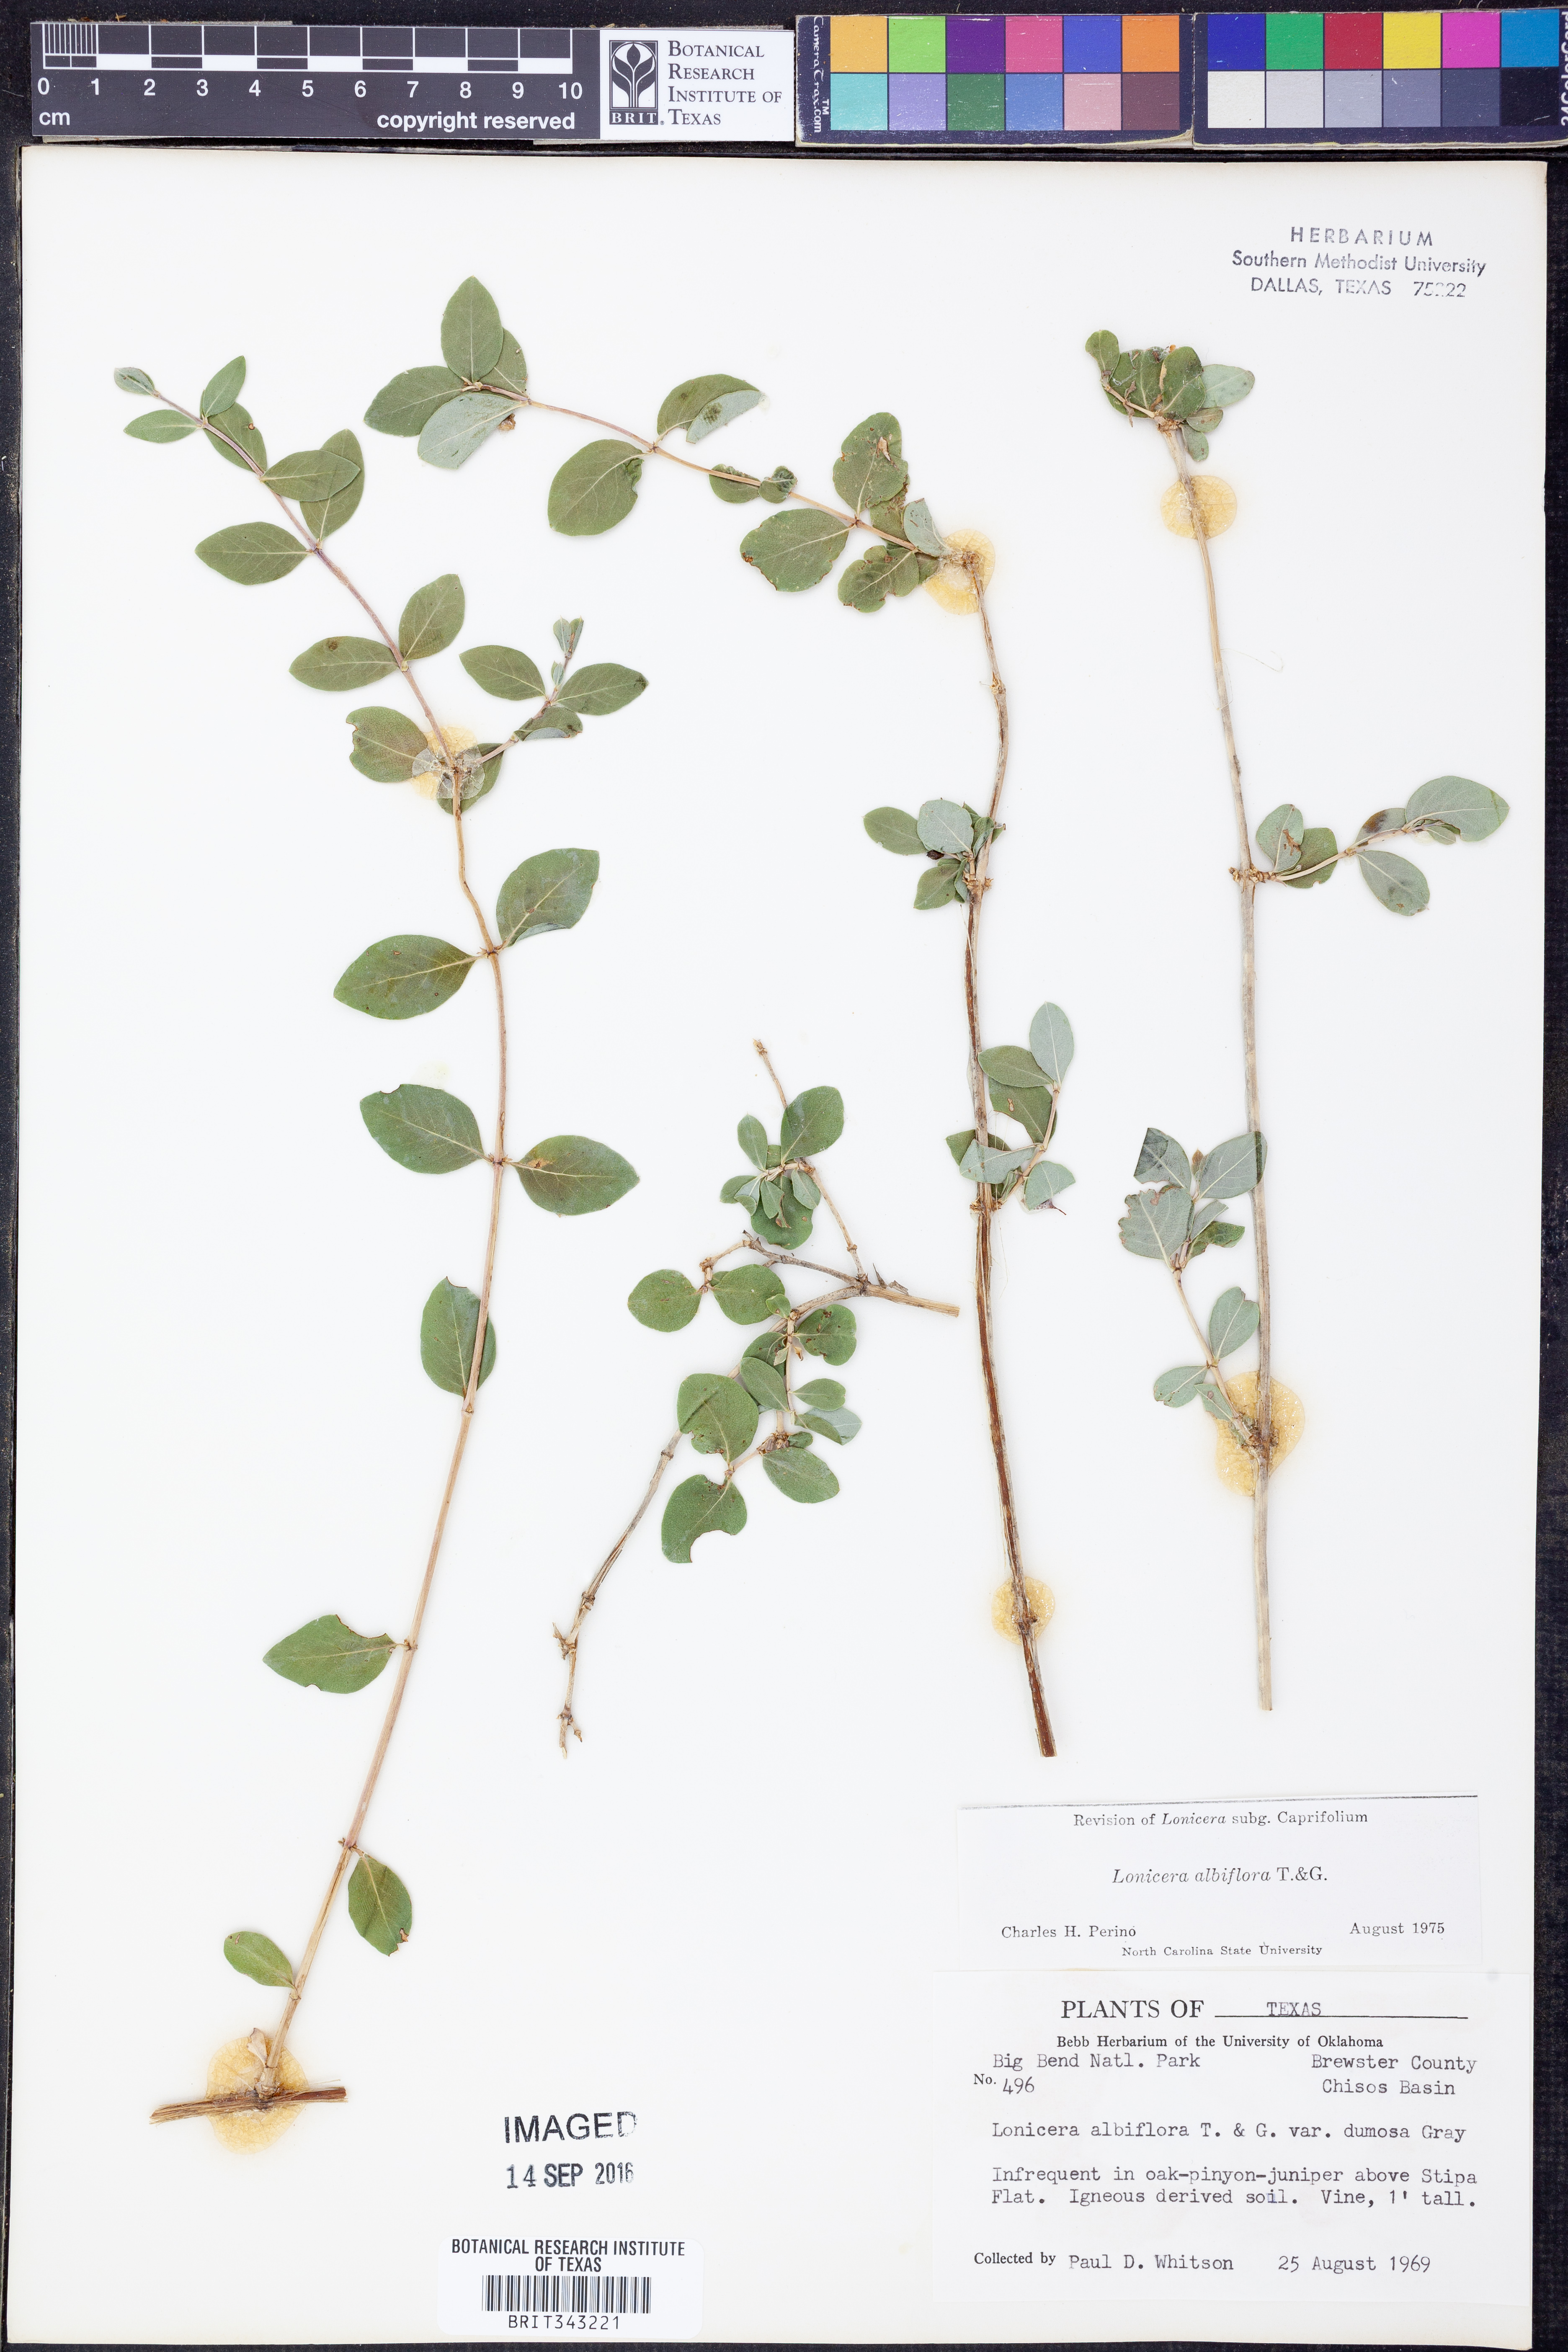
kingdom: Plantae
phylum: Tracheophyta
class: Magnoliopsida
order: Dipsacales
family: Caprifoliaceae
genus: Lonicera
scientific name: Lonicera albiflora
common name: White honeysuckle
